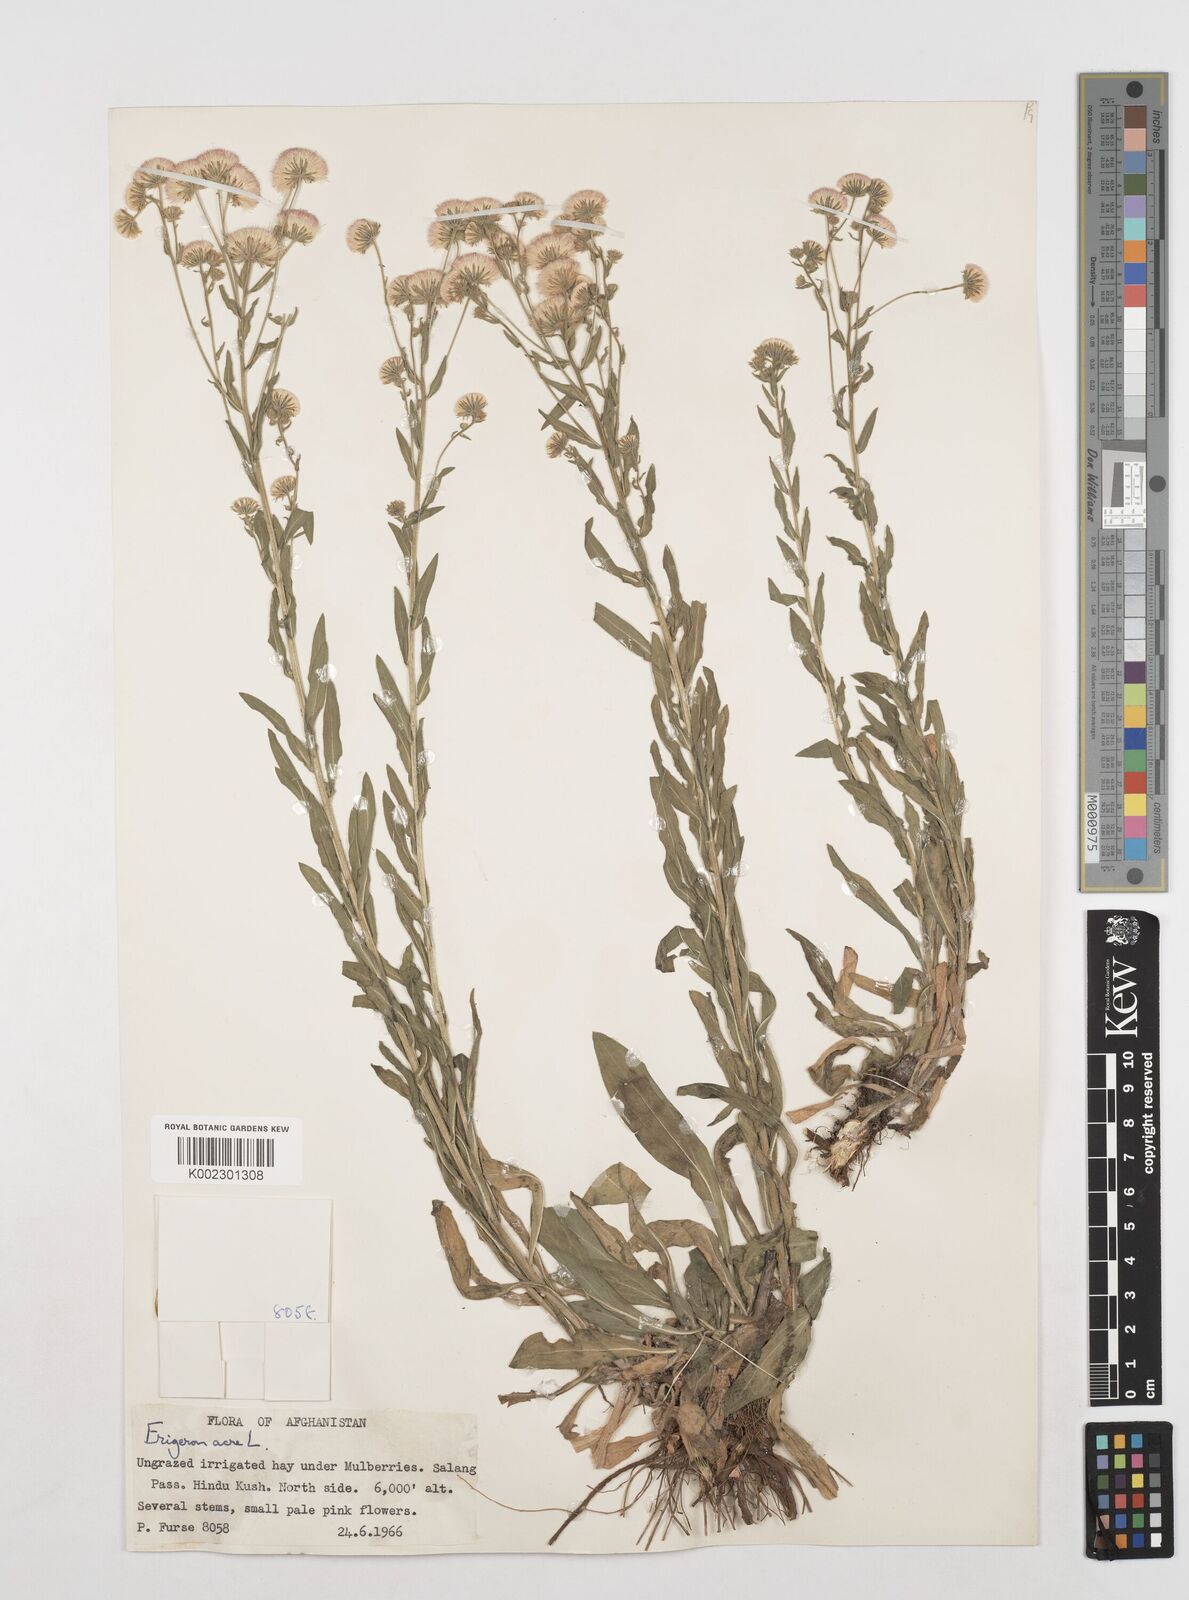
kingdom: Plantae
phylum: Tracheophyta
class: Magnoliopsida
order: Asterales
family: Asteraceae
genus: Erigeron
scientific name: Erigeron acris
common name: Blue fleabane
